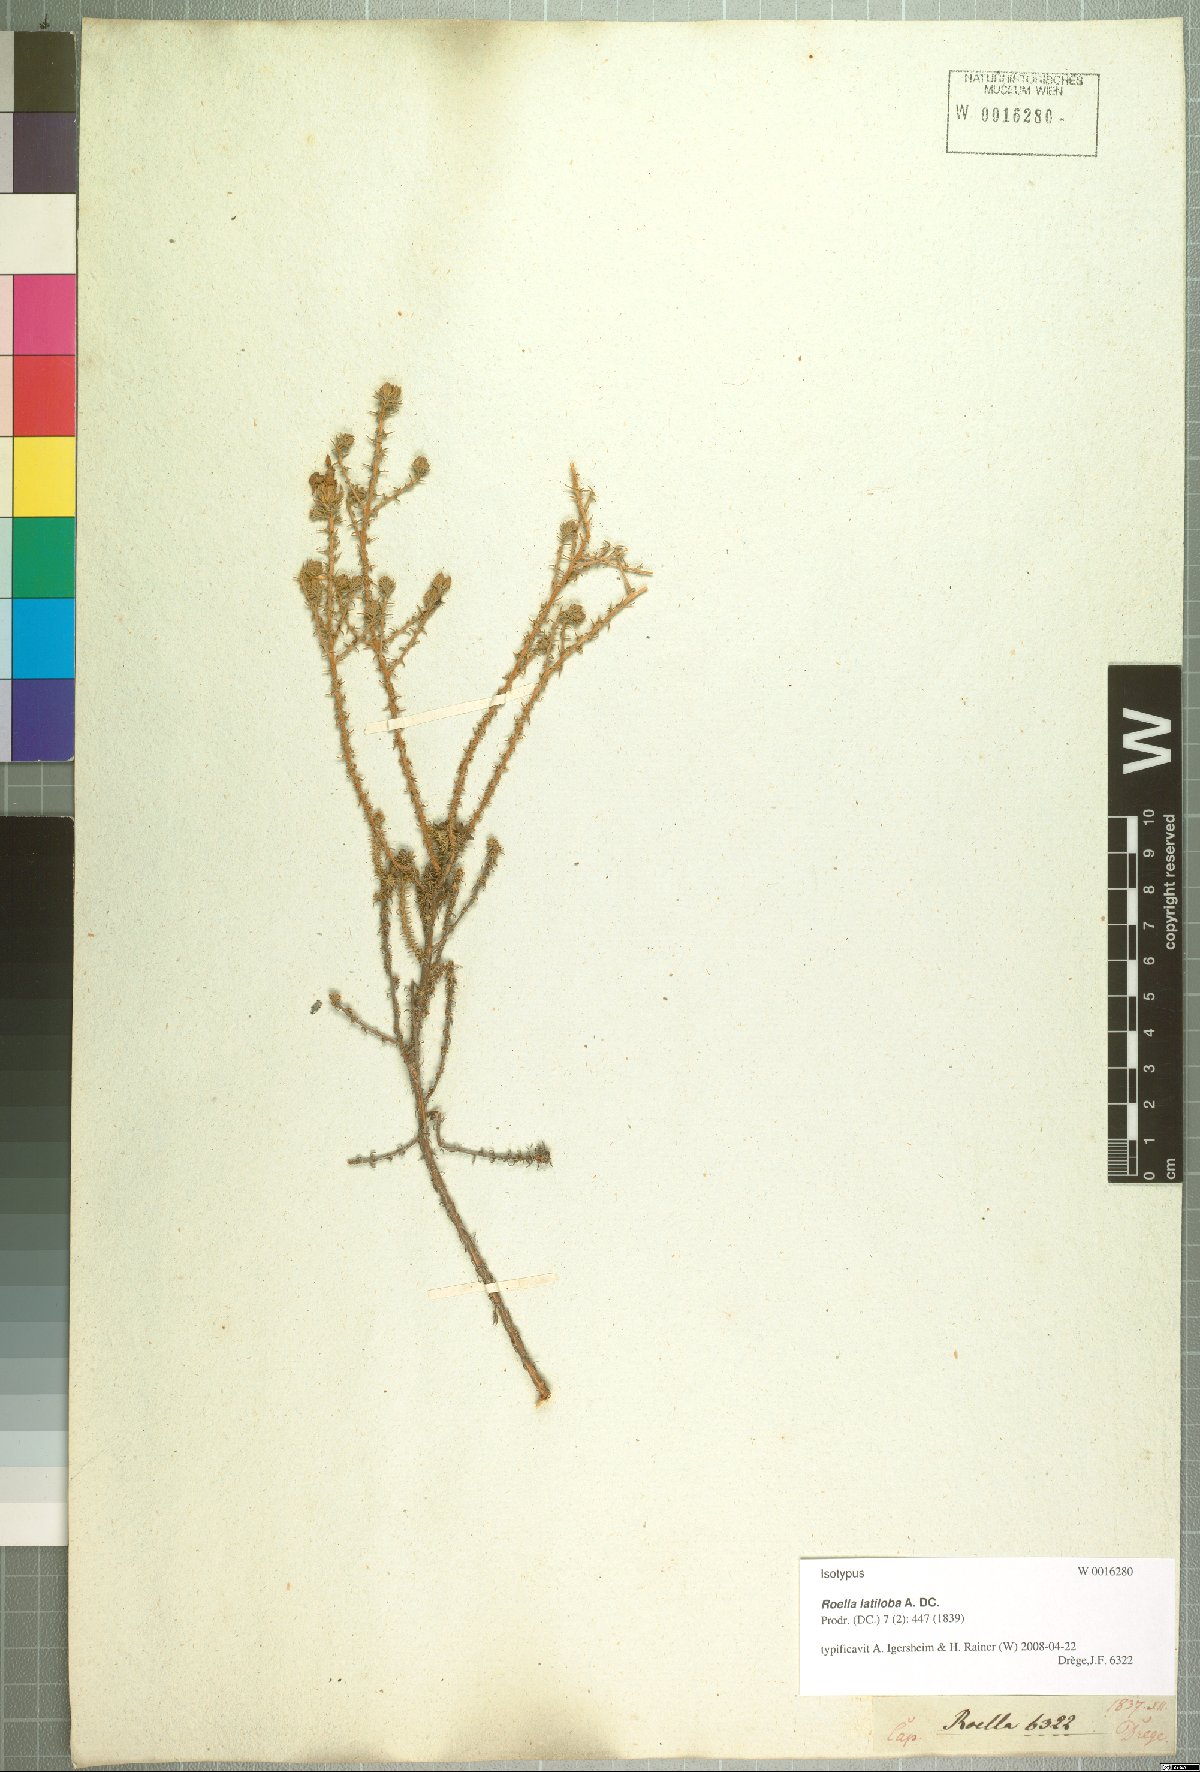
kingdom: Plantae
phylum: Tracheophyta
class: Magnoliopsida
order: Asterales
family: Campanulaceae
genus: Roella
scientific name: Roella latiloba
